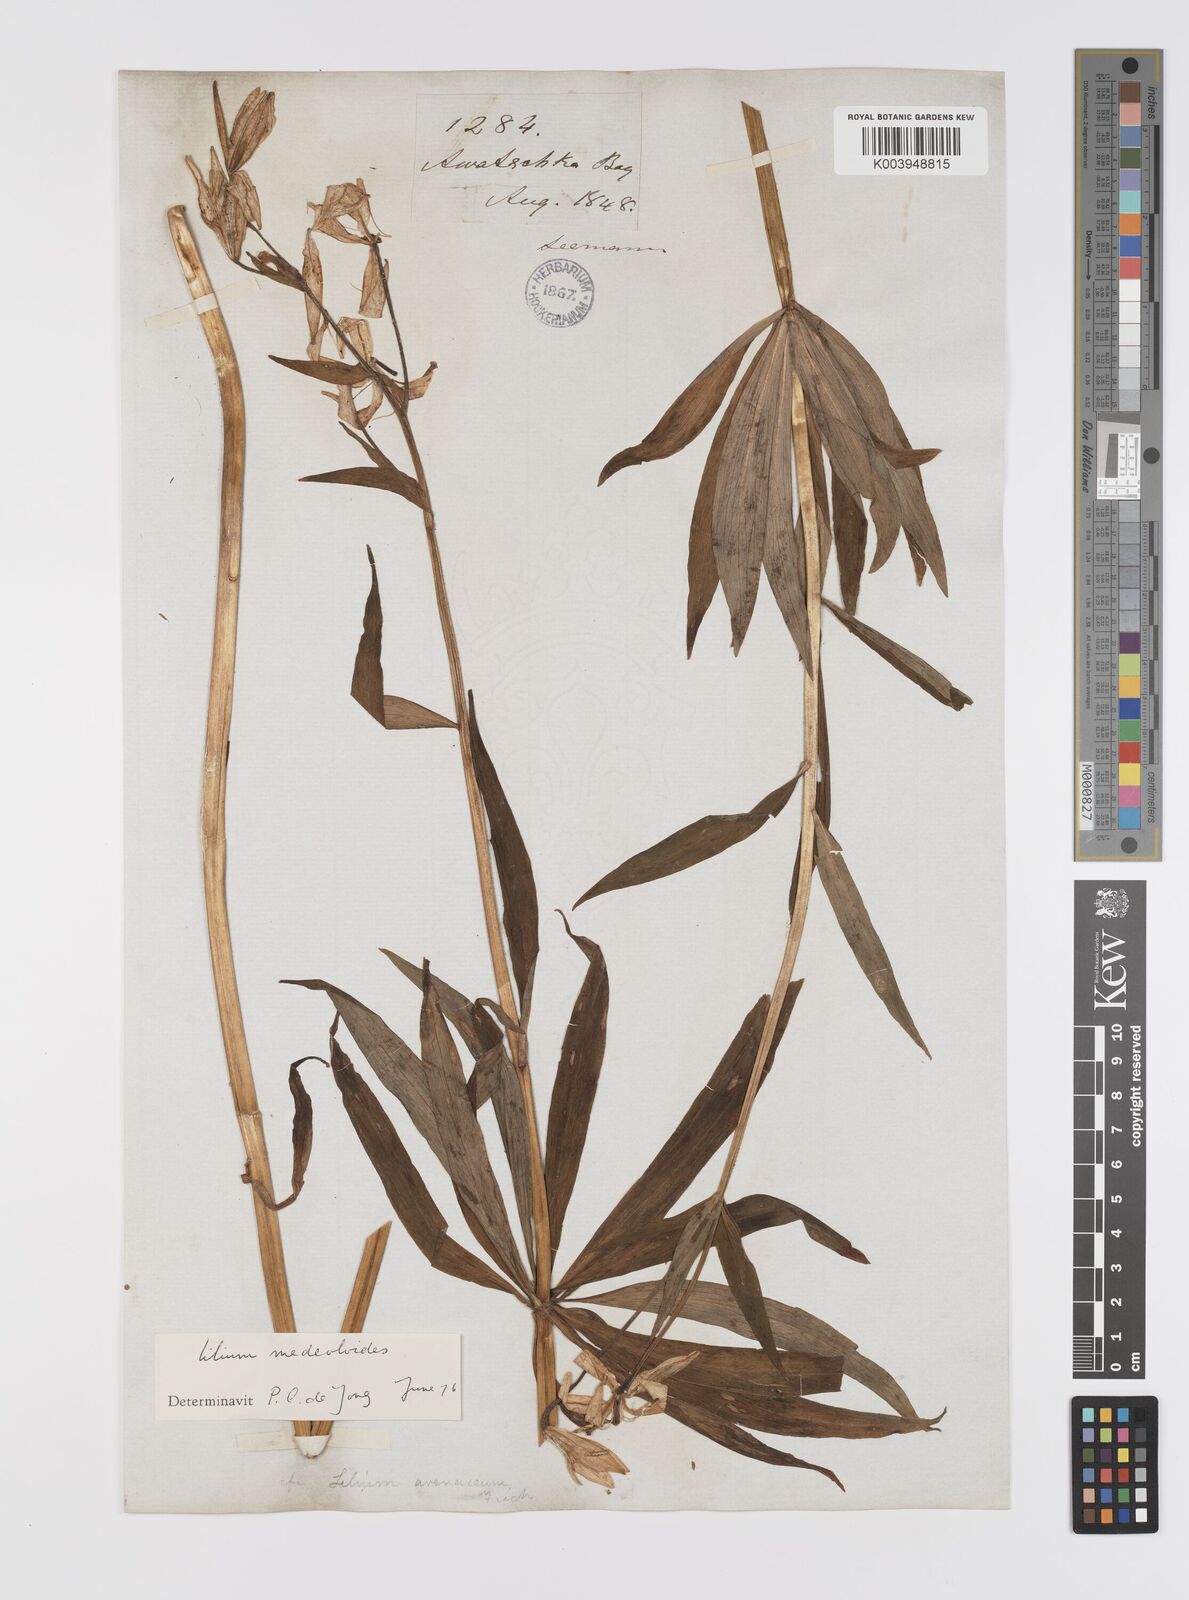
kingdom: Plantae
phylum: Tracheophyta
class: Liliopsida
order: Liliales
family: Liliaceae
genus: Lilium
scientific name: Lilium medeoloides
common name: Wheel lily
